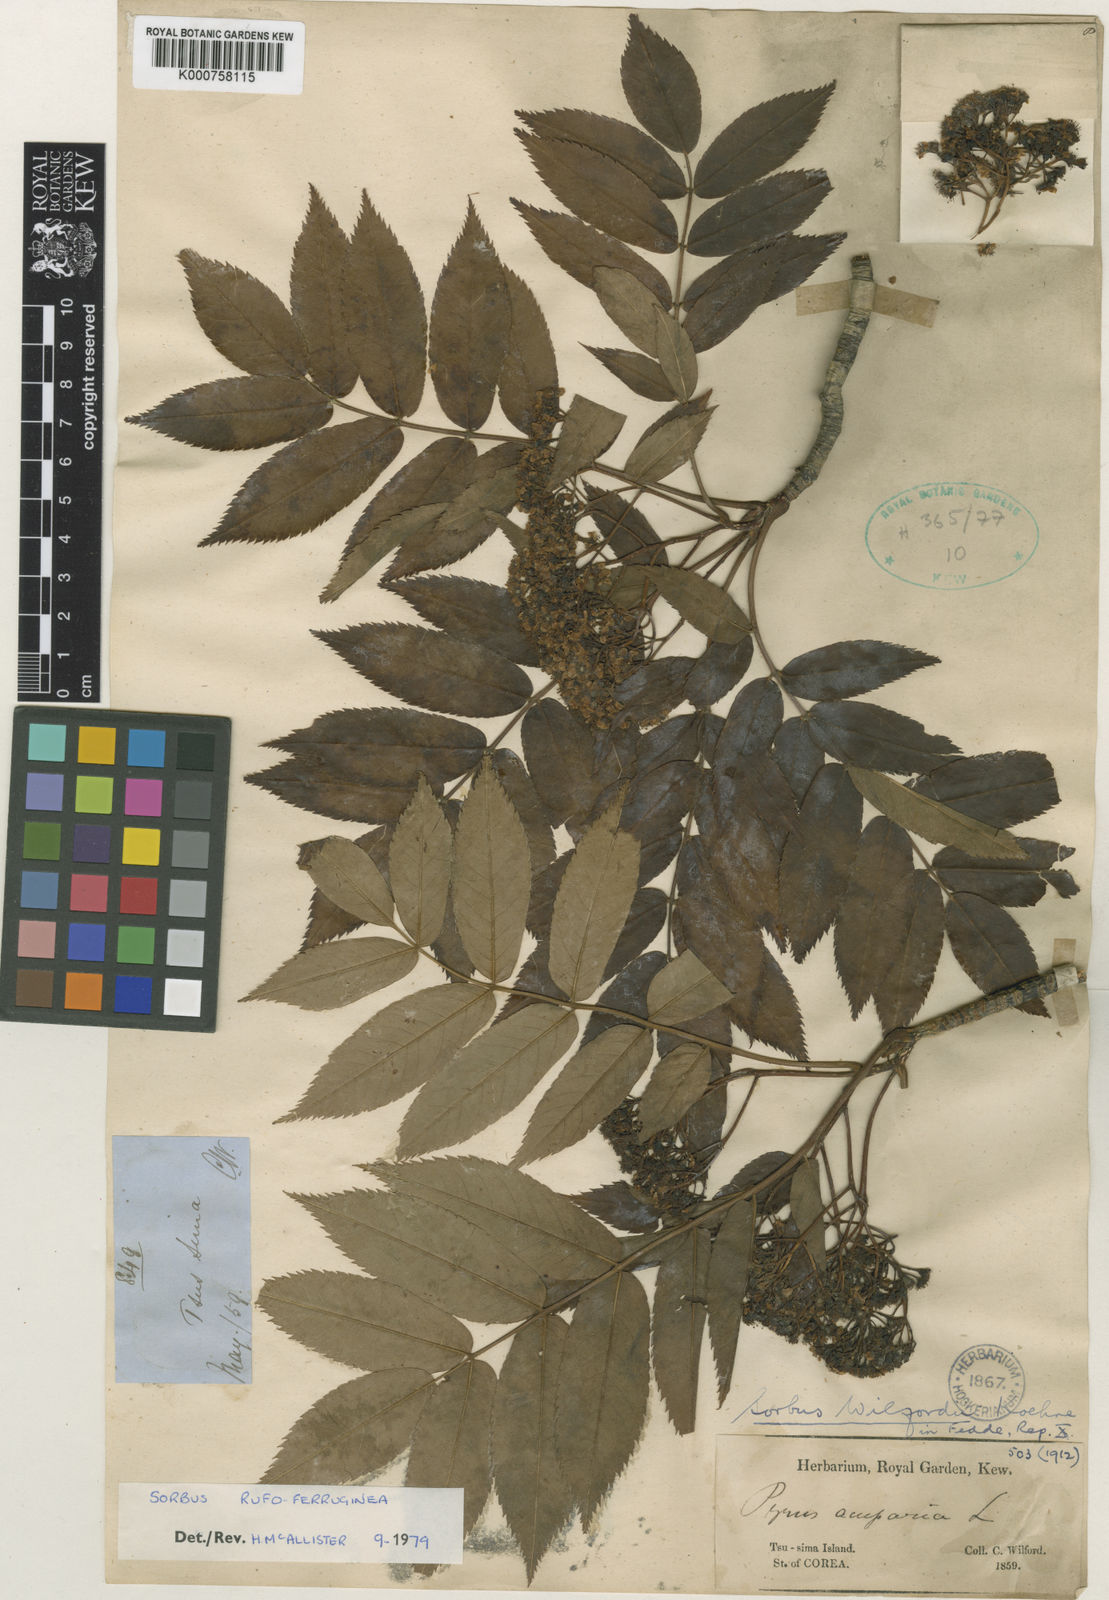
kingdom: Plantae
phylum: Tracheophyta
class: Magnoliopsida
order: Rosales
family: Rosaceae
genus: Sorbus
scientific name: Sorbus commixta
